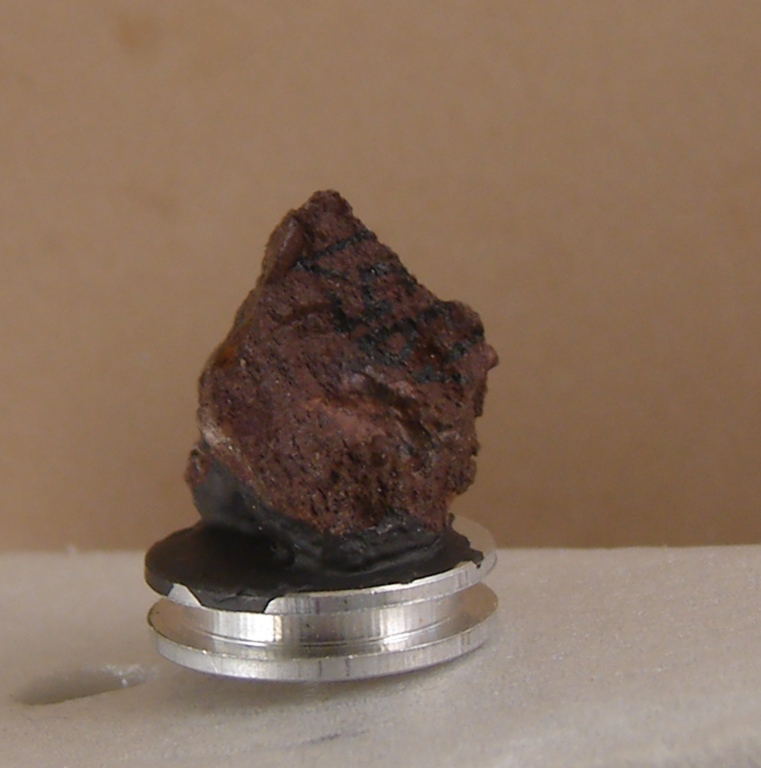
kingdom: Animalia
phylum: Arthropoda
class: Ostracoda
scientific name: Ostracoda
